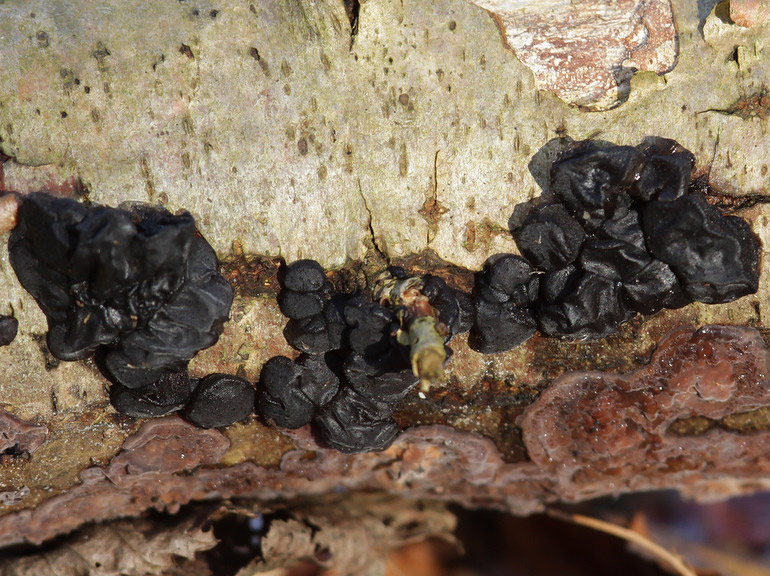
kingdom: Fungi
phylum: Basidiomycota
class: Agaricomycetes
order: Auriculariales
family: Auriculariaceae
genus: Exidia
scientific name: Exidia glandulosa
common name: ege-bævretop
